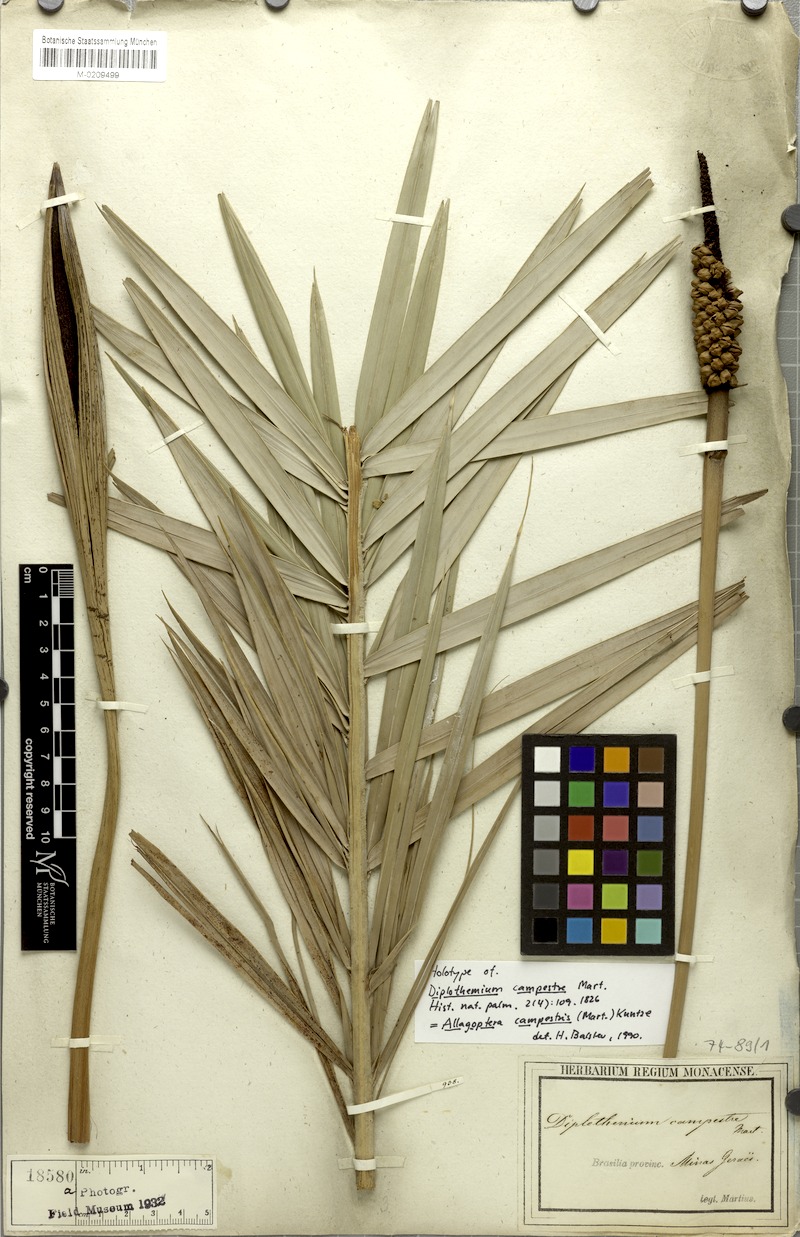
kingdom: Plantae
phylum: Tracheophyta
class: Liliopsida
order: Arecales
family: Arecaceae
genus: Allagoptera
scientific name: Allagoptera campestris
